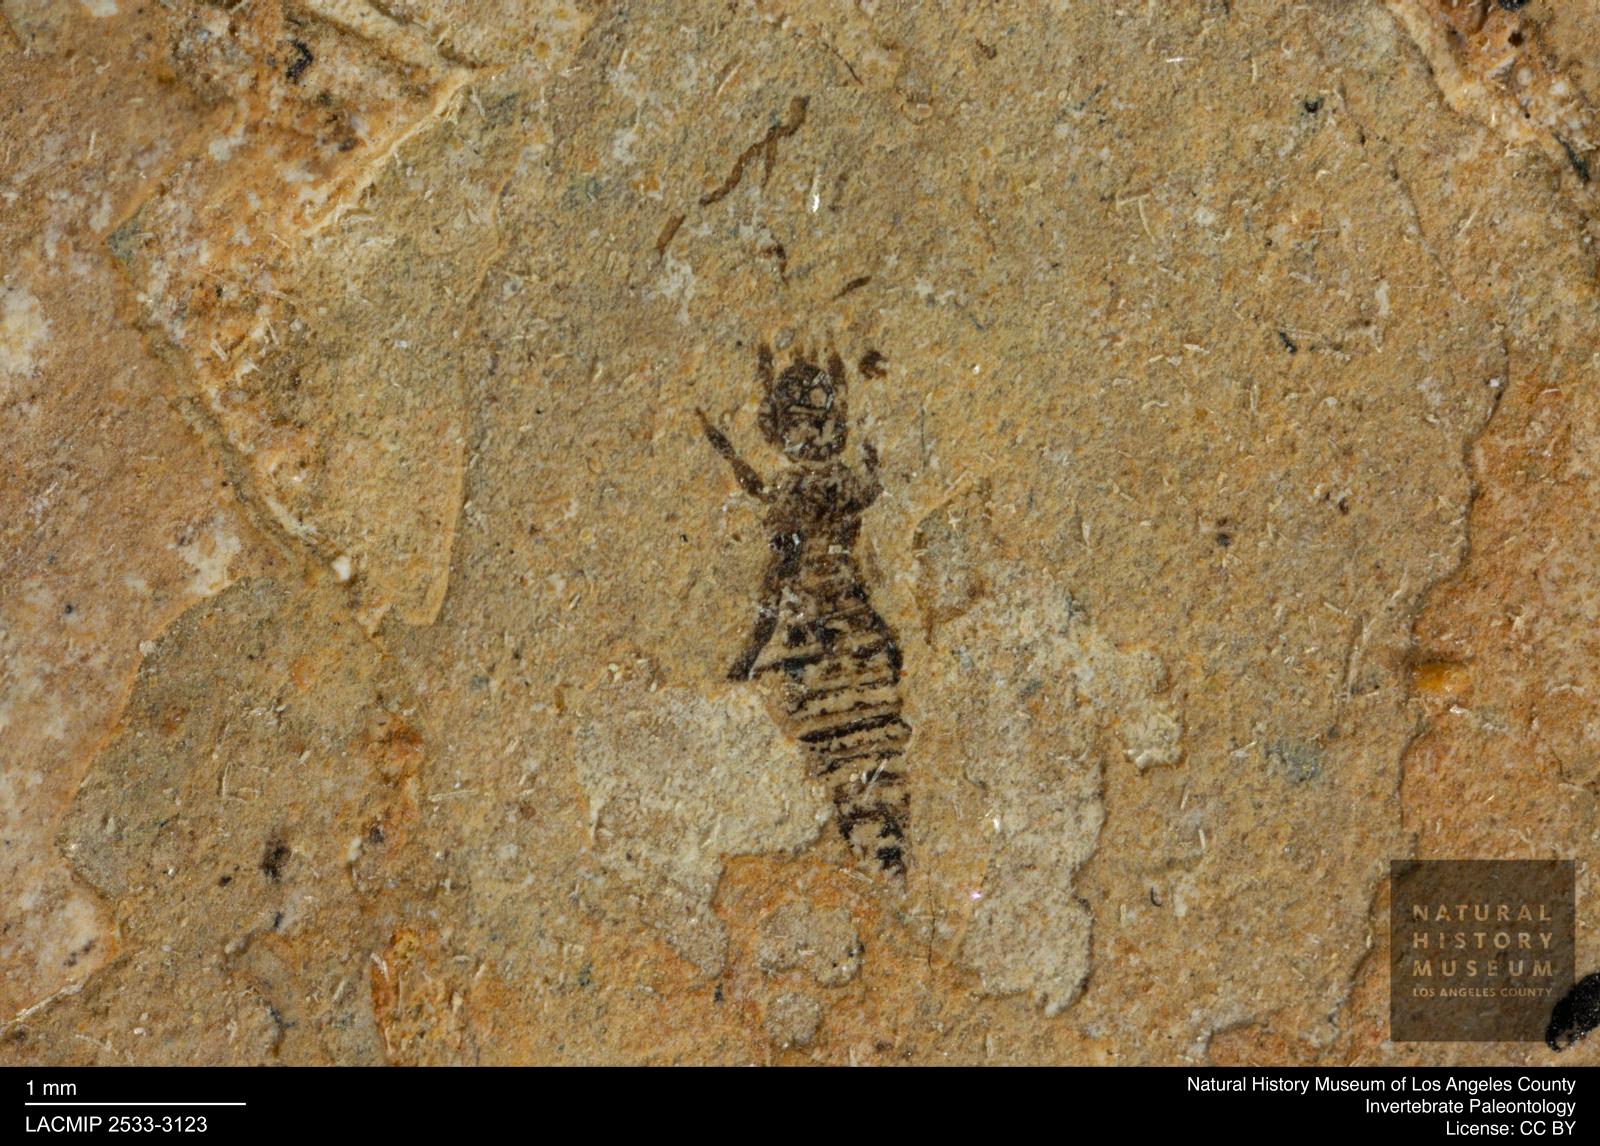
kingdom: Animalia
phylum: Arthropoda
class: Insecta
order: Thysanoptera
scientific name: Thysanoptera
